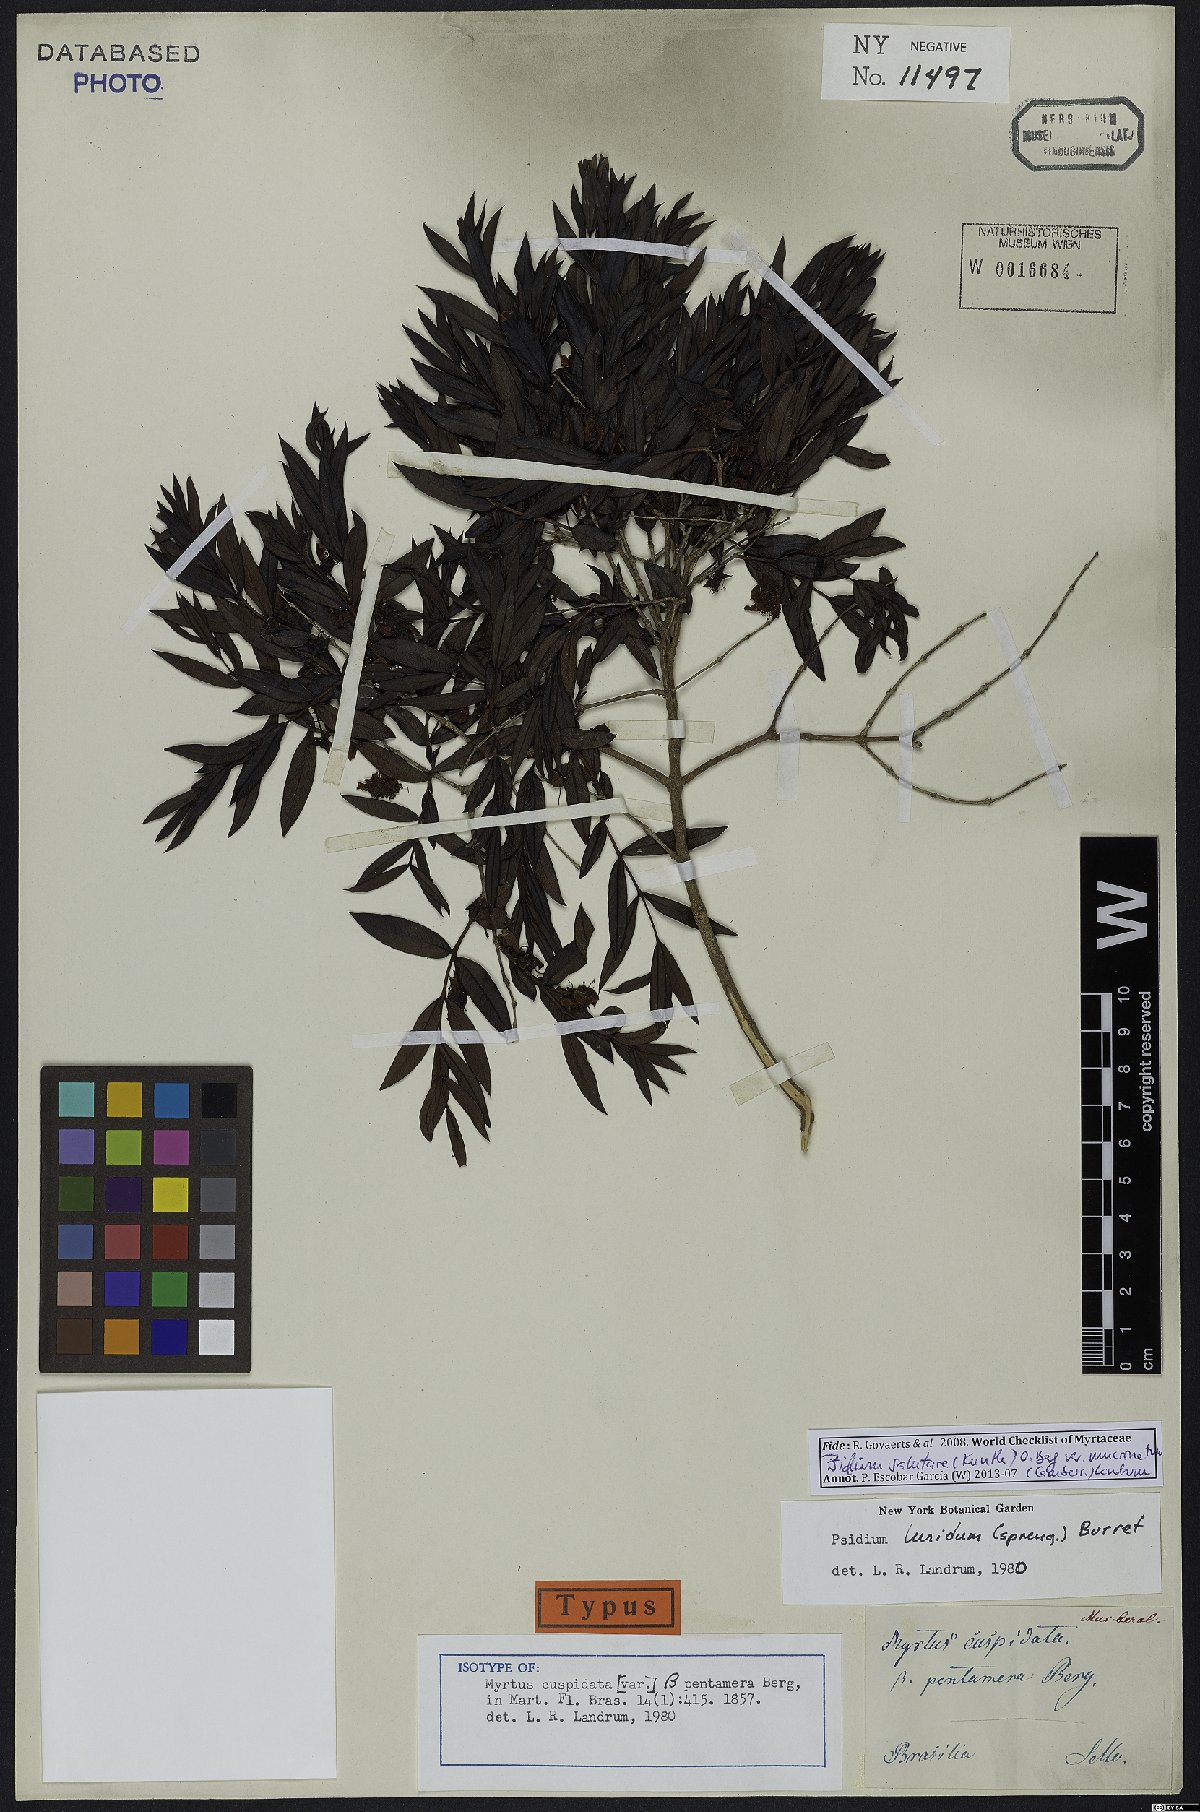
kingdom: Plantae
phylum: Tracheophyta
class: Magnoliopsida
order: Myrtales
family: Myrtaceae
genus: Psidium
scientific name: Psidium salutare
